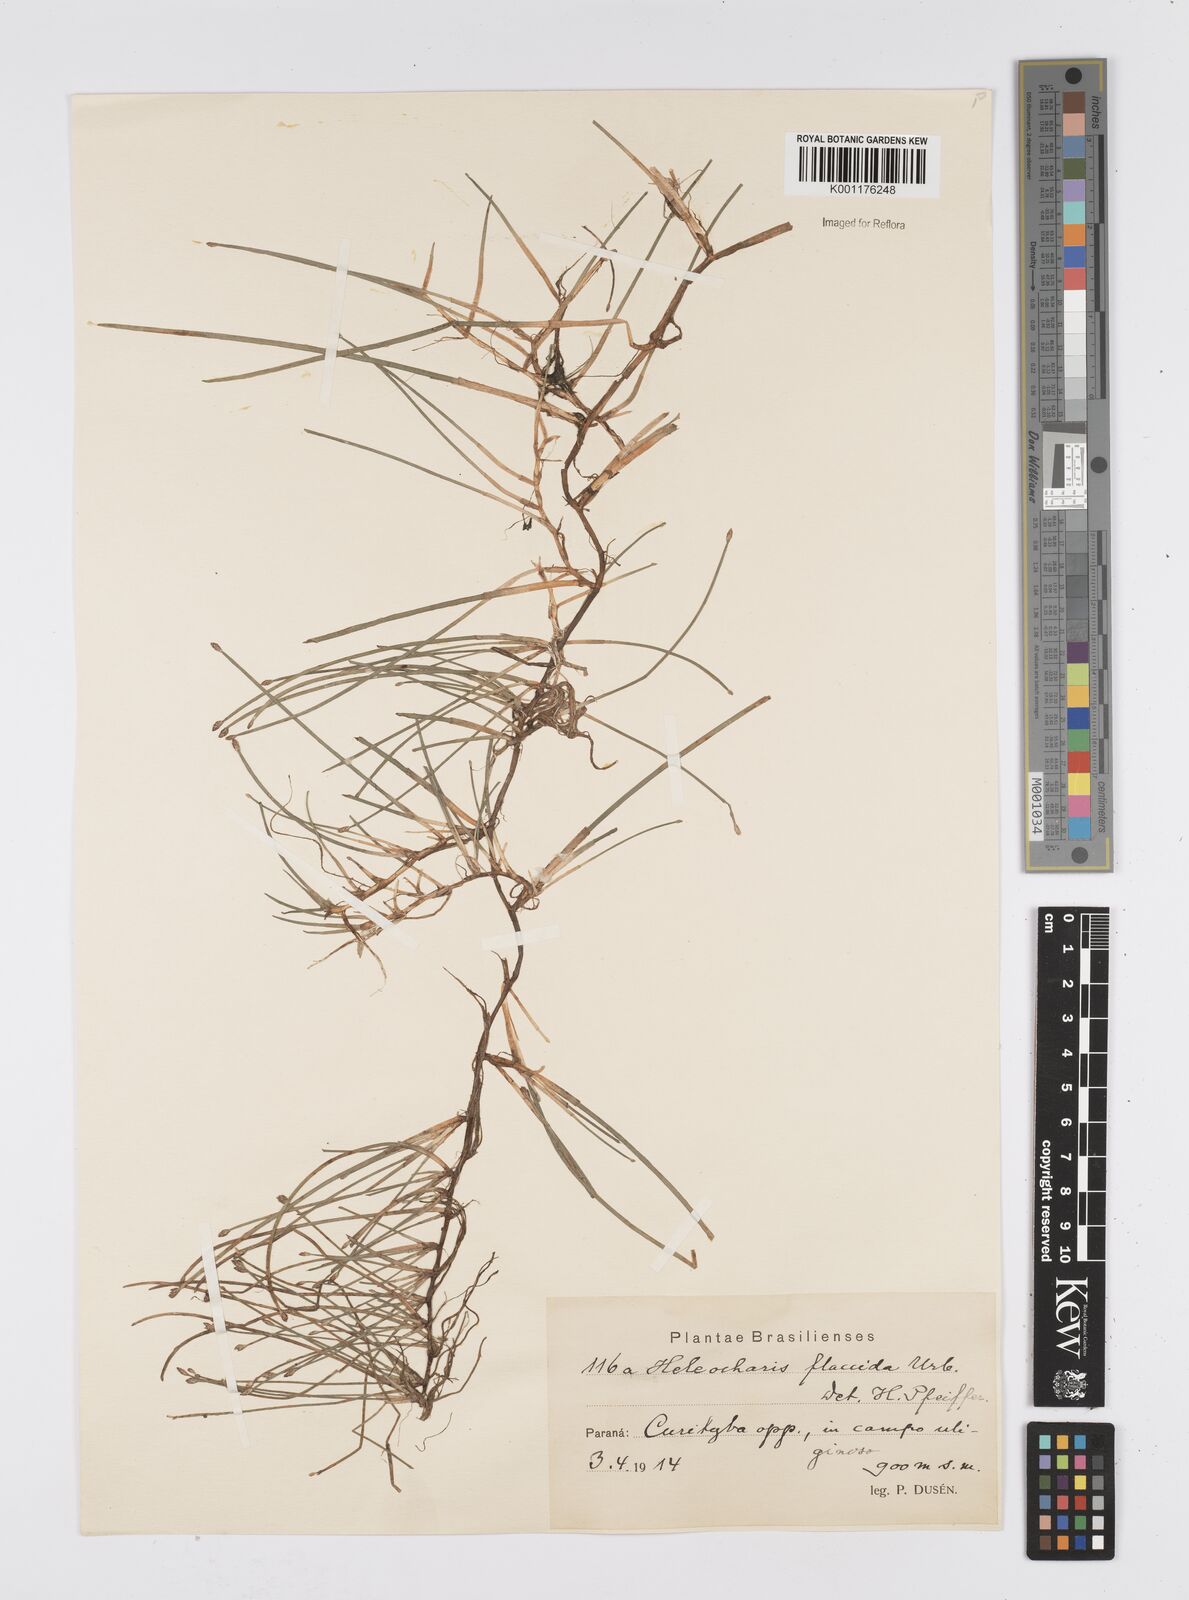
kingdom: Plantae
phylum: Tracheophyta
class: Liliopsida
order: Poales
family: Cyperaceae
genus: Eleocharis
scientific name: Eleocharis flavescens
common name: Yellow spikerush
